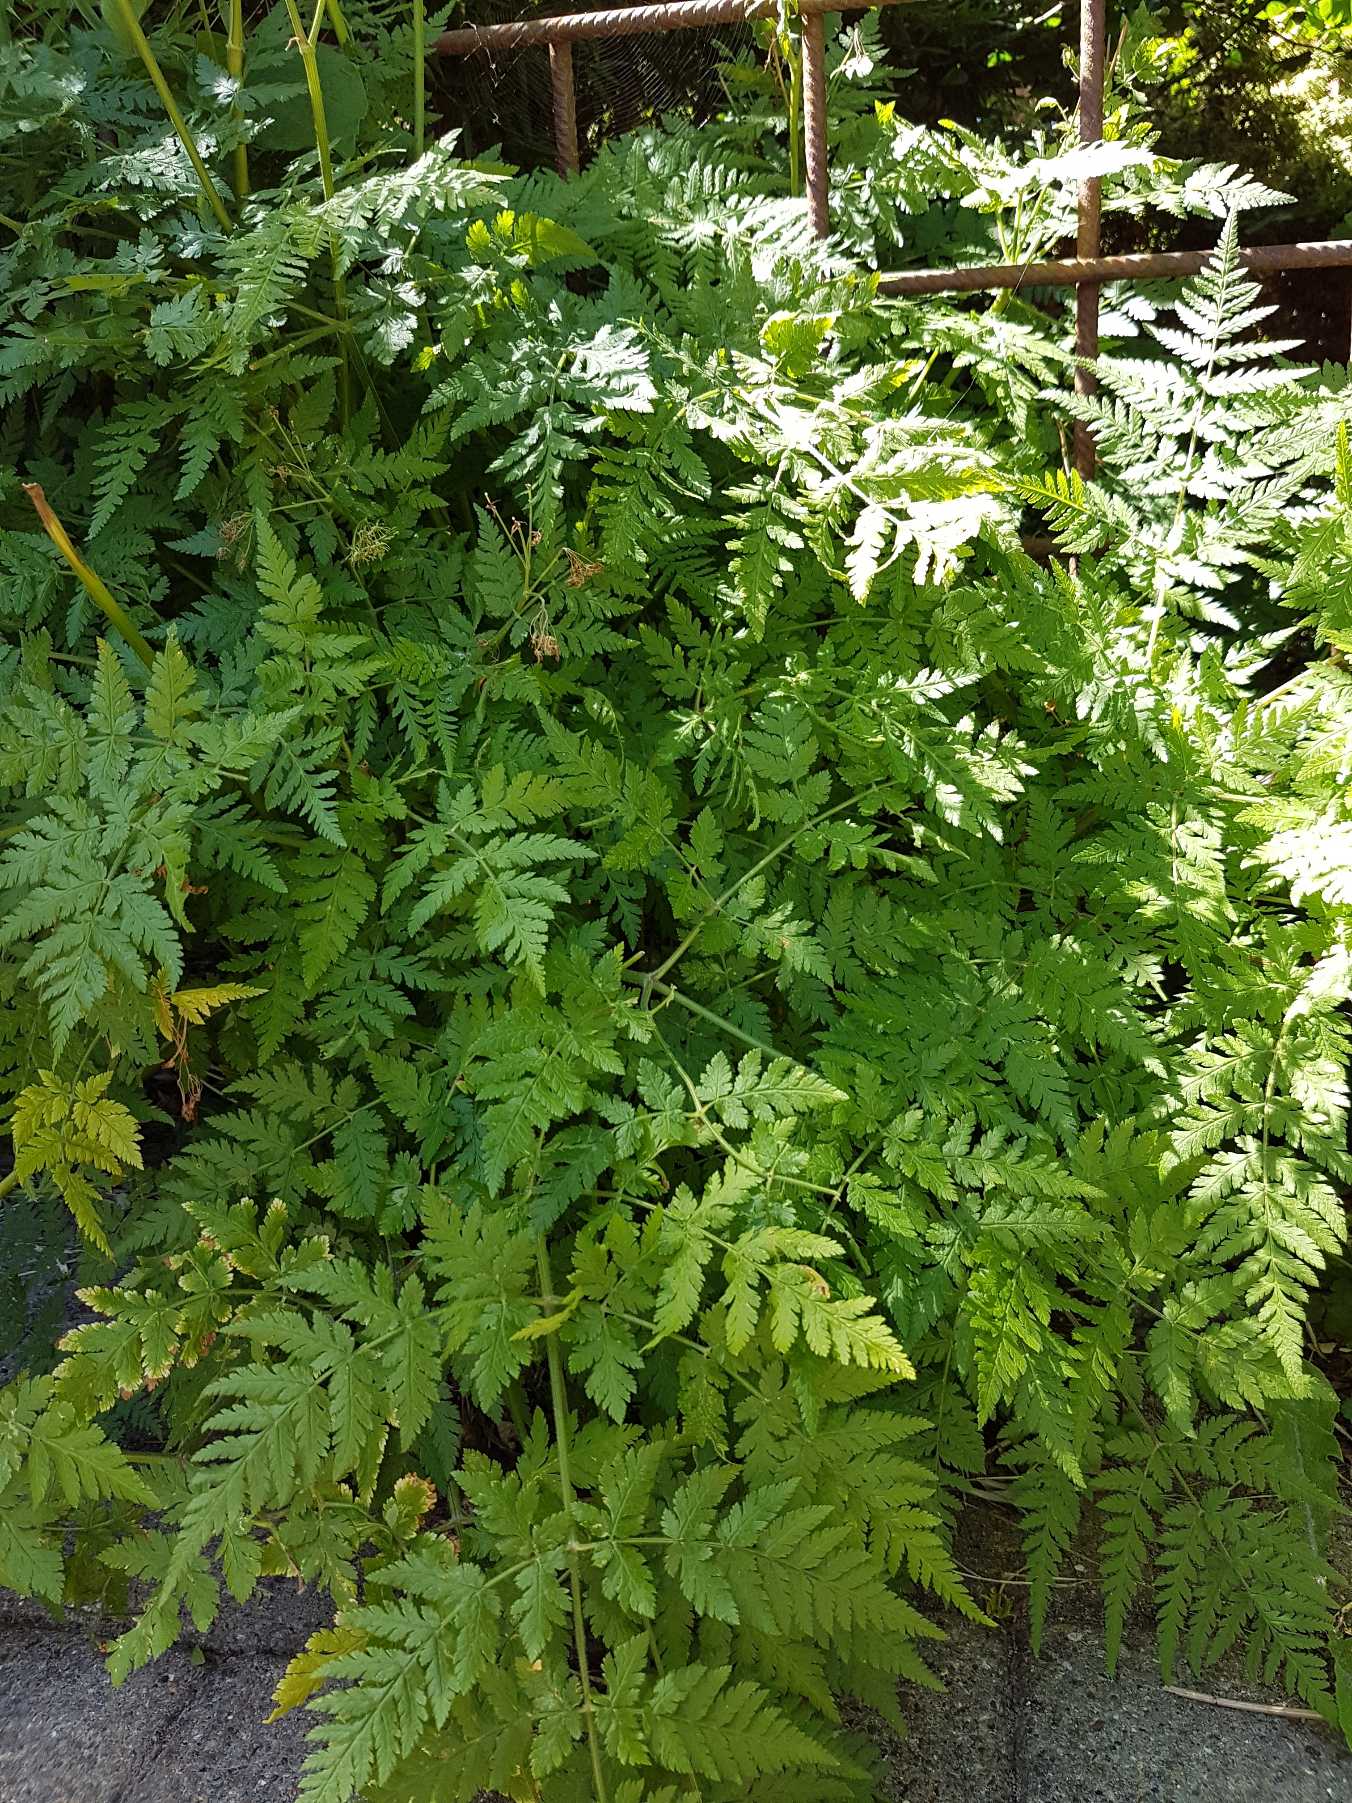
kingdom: Plantae
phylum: Tracheophyta
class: Magnoliopsida
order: Apiales
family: Apiaceae
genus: Myrrhis
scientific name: Myrrhis odorata
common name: Sødskærm
